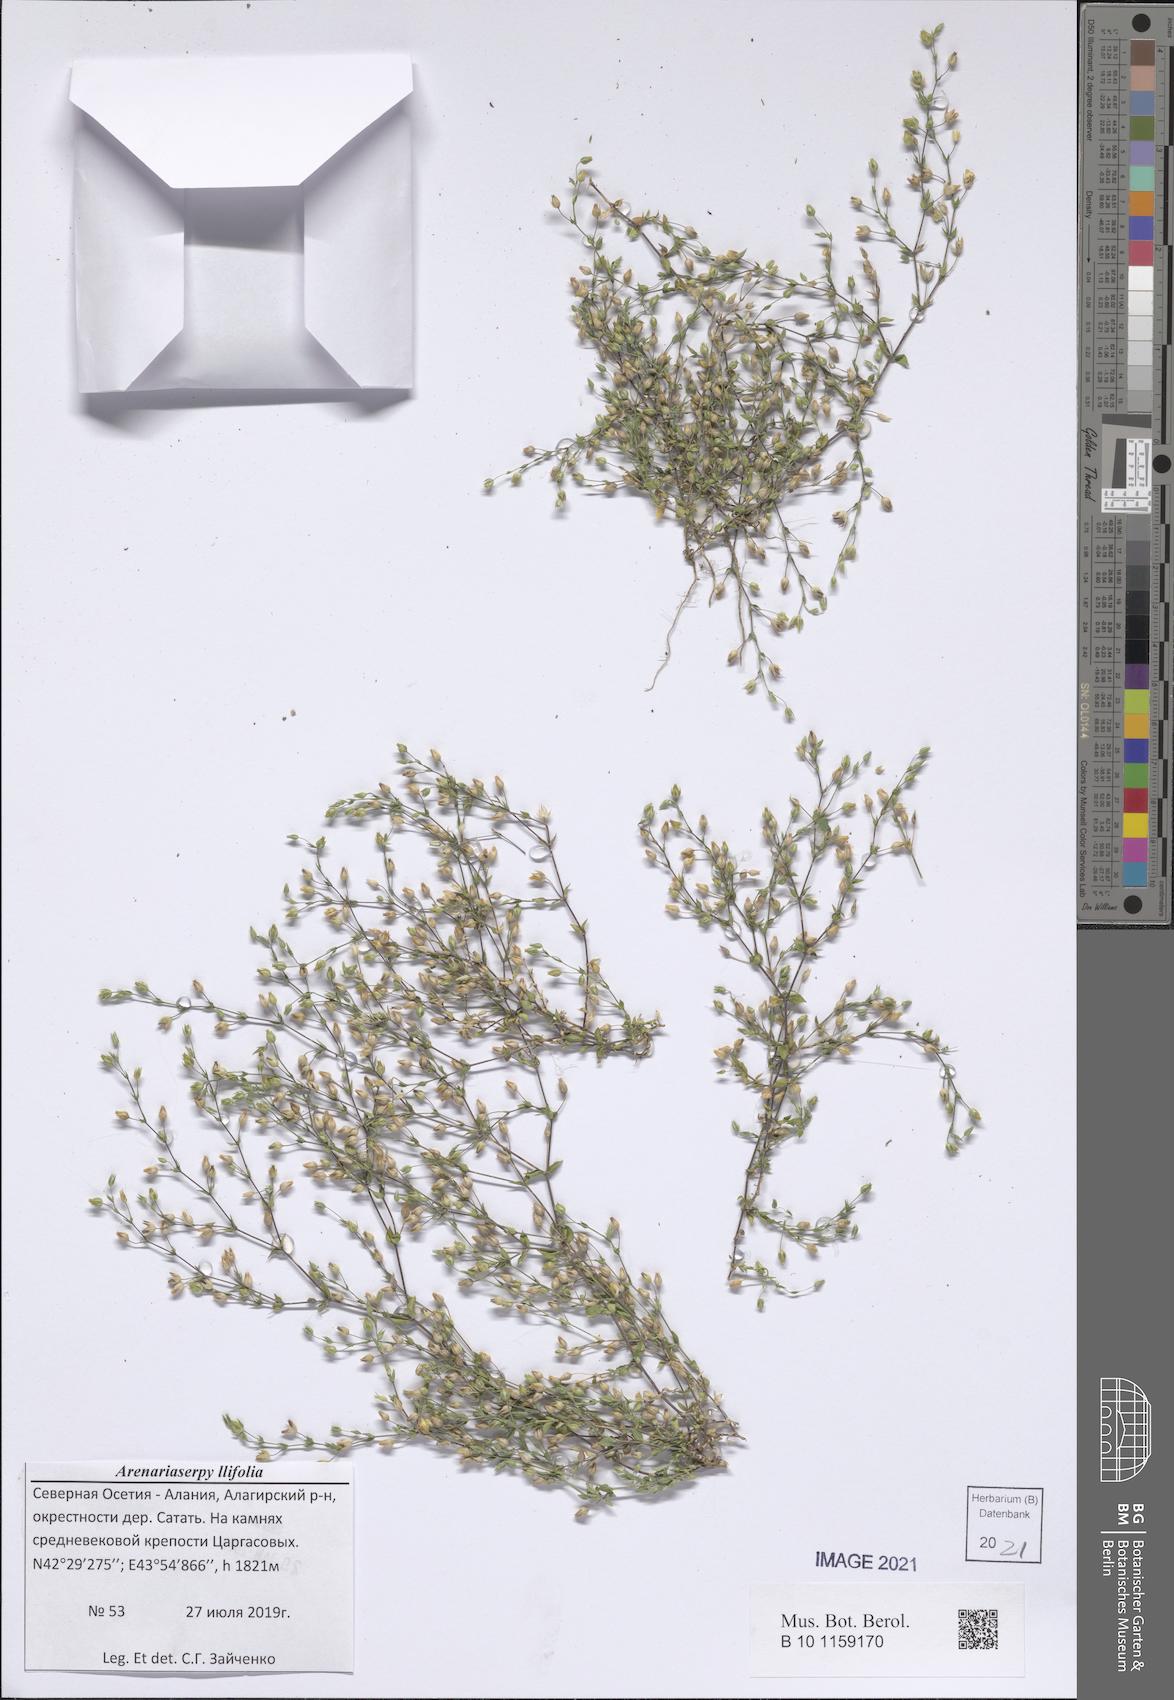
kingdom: Plantae
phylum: Tracheophyta
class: Magnoliopsida
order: Caryophyllales
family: Caryophyllaceae
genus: Arenaria
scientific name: Arenaria serpyllifolia
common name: Thyme-leaved sandwort
